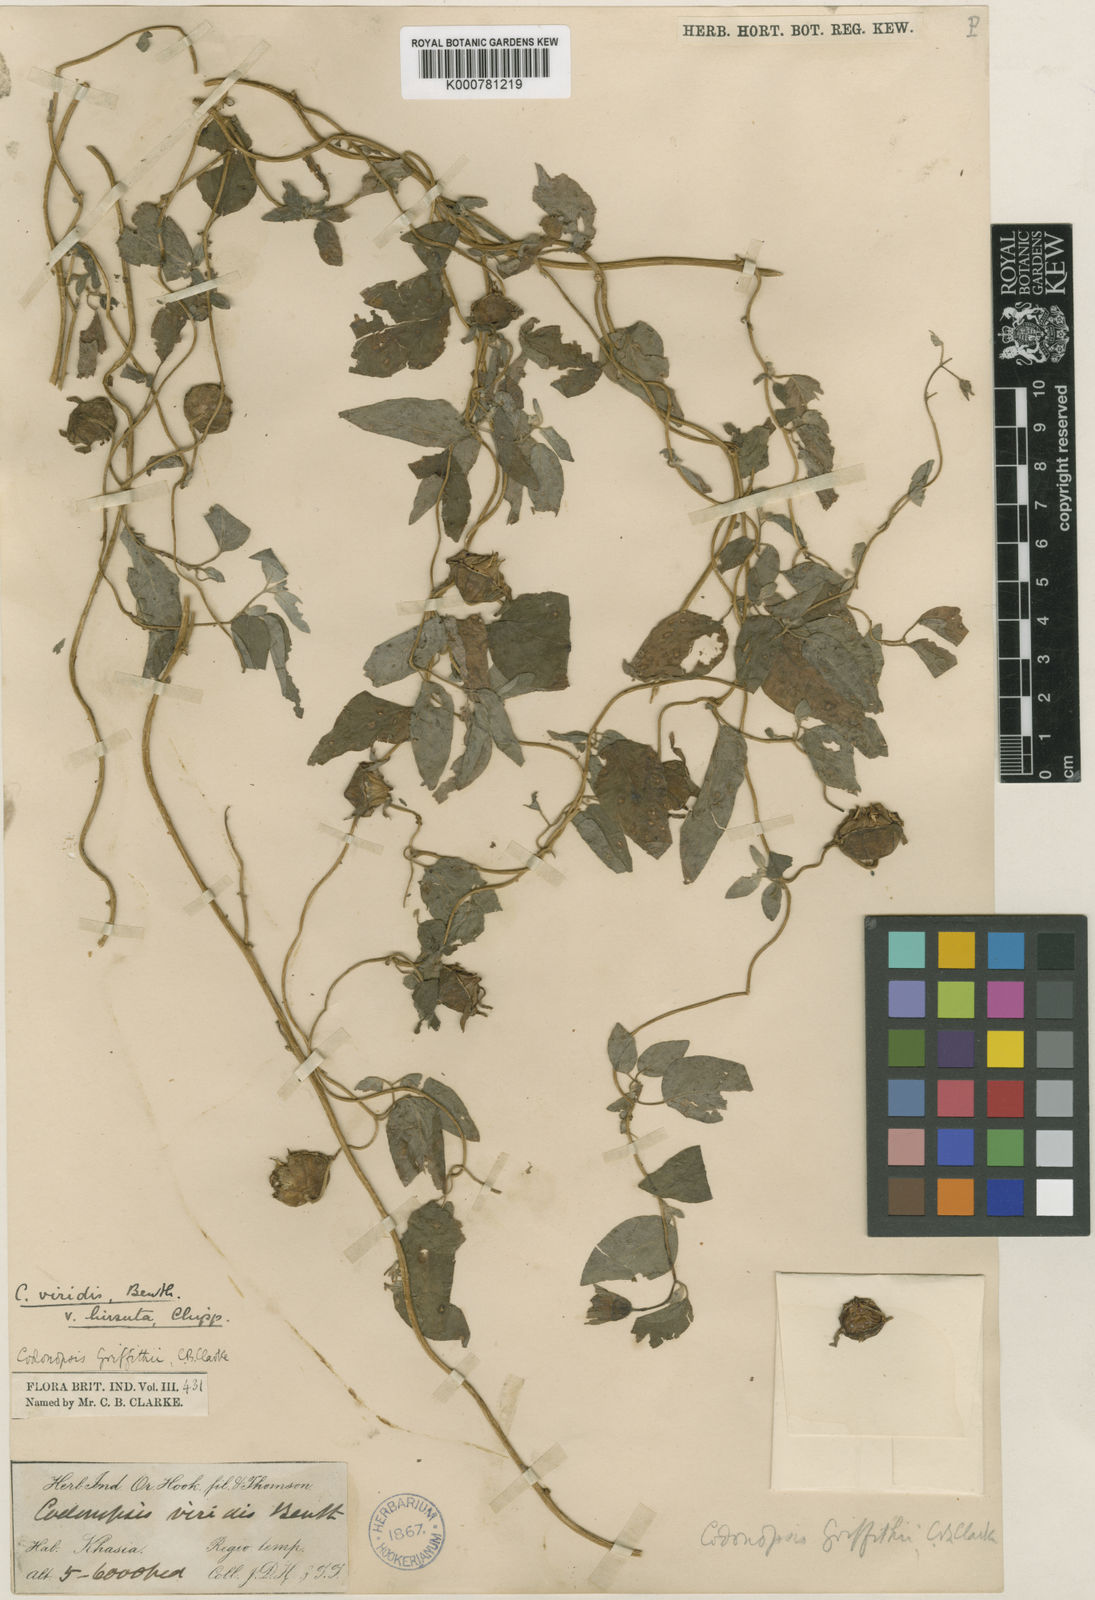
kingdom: Plantae
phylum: Tracheophyta
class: Magnoliopsida
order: Asterales
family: Campanulaceae
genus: Codonopsis
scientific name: Codonopsis
